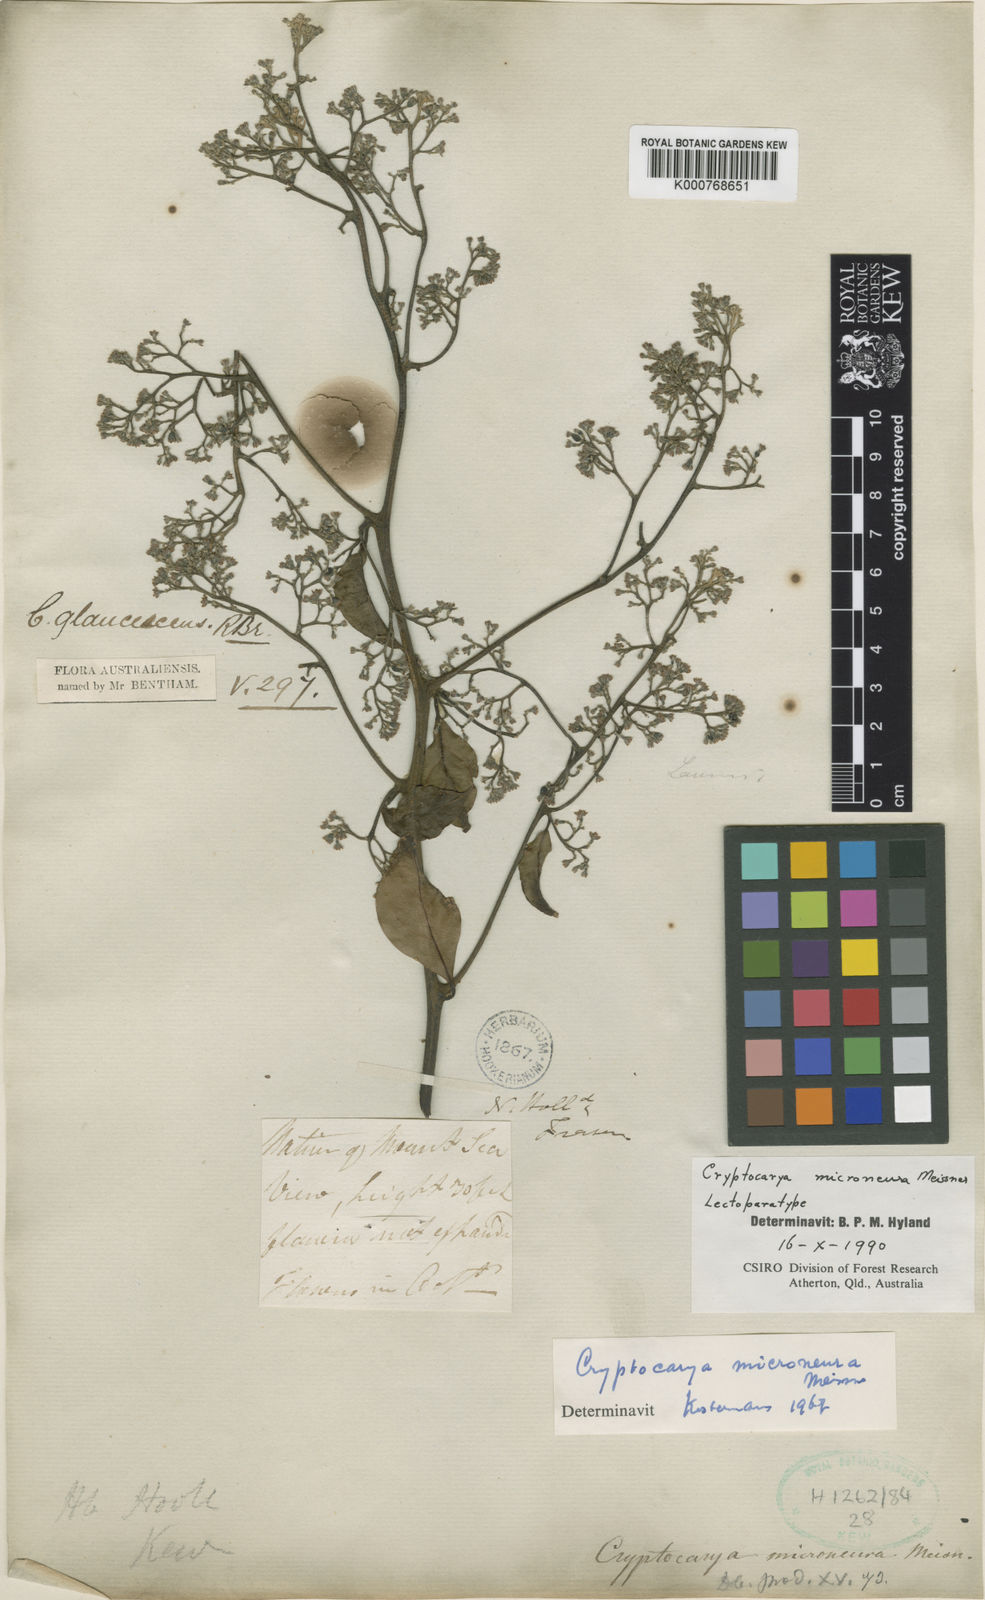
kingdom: Plantae
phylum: Tracheophyta
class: Magnoliopsida
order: Laurales
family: Lauraceae
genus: Cryptocarya
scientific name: Cryptocarya microneura
